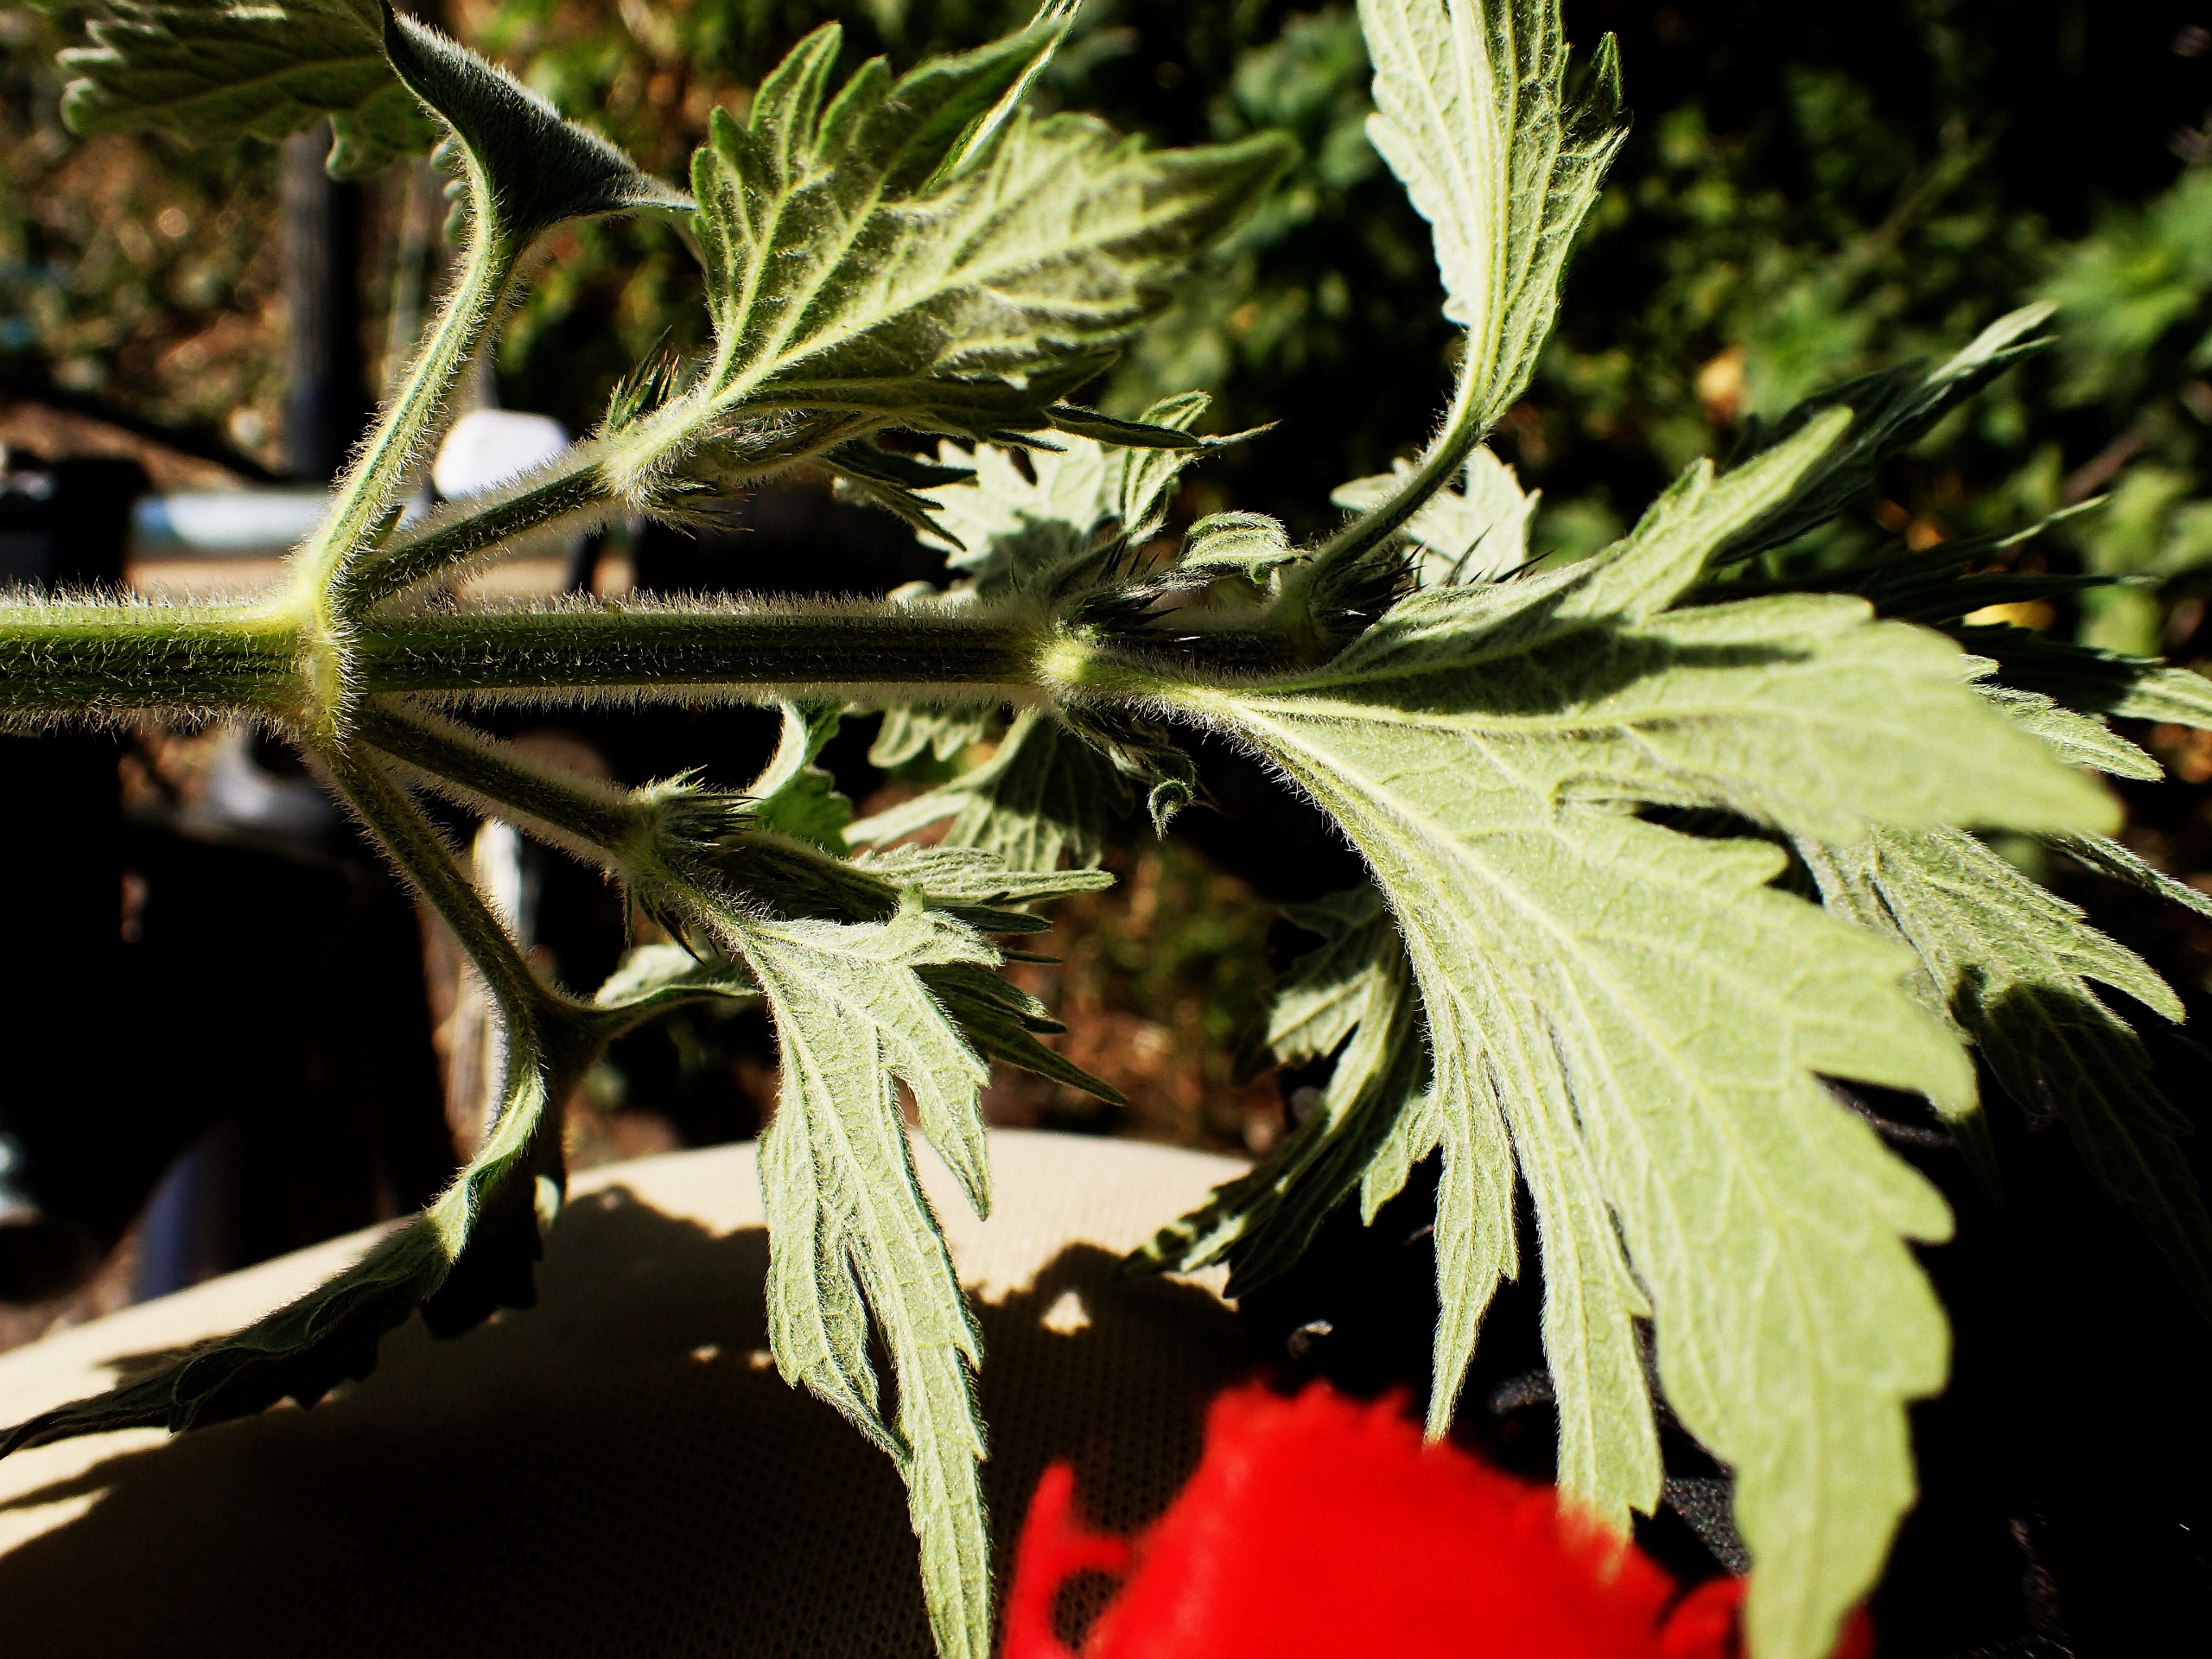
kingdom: Plantae
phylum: Tracheophyta
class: Magnoliopsida
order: Lamiales
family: Lamiaceae
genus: Leonurus
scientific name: Leonurus quinquelobatus
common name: Håret hjertespand
